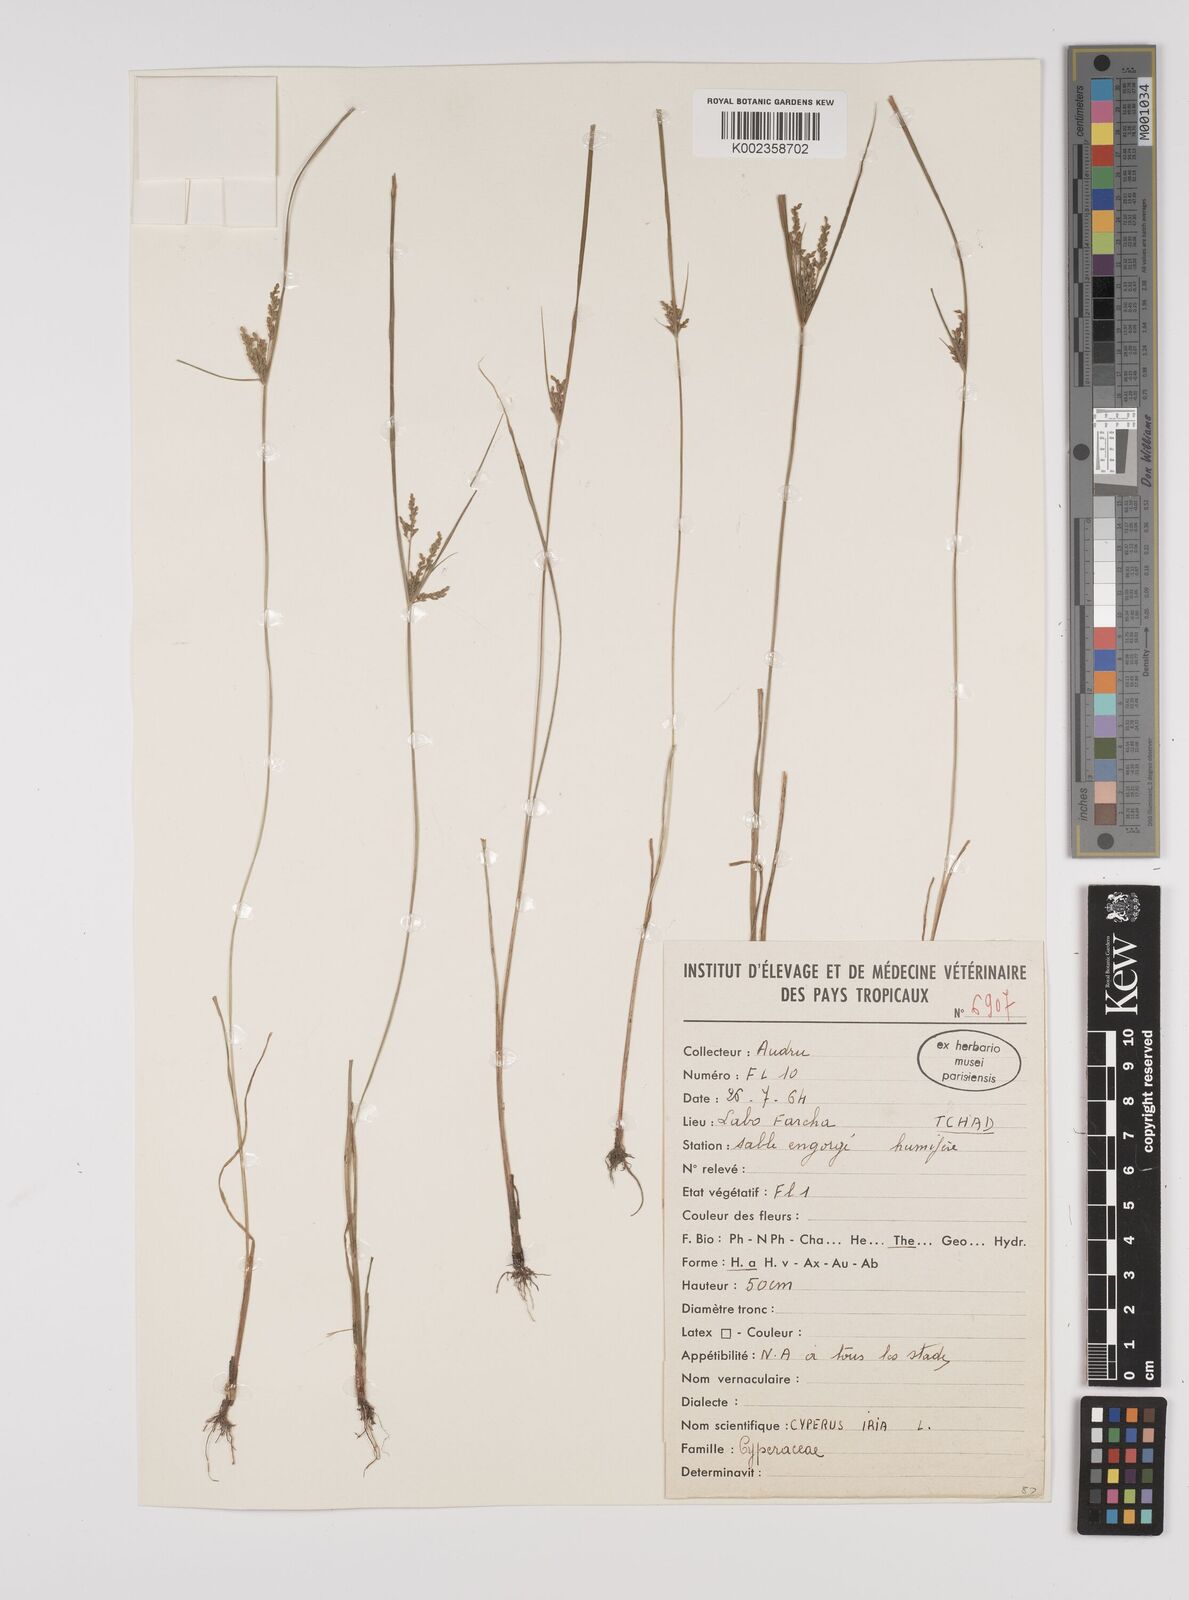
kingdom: Plantae
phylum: Tracheophyta
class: Liliopsida
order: Poales
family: Cyperaceae
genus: Cyperus
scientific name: Cyperus iria
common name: Ricefield flatsedge
